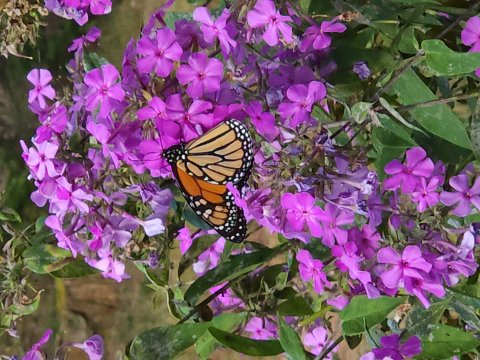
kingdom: Animalia
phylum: Arthropoda
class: Insecta
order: Lepidoptera
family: Nymphalidae
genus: Danaus
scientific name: Danaus plexippus
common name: Monarch
